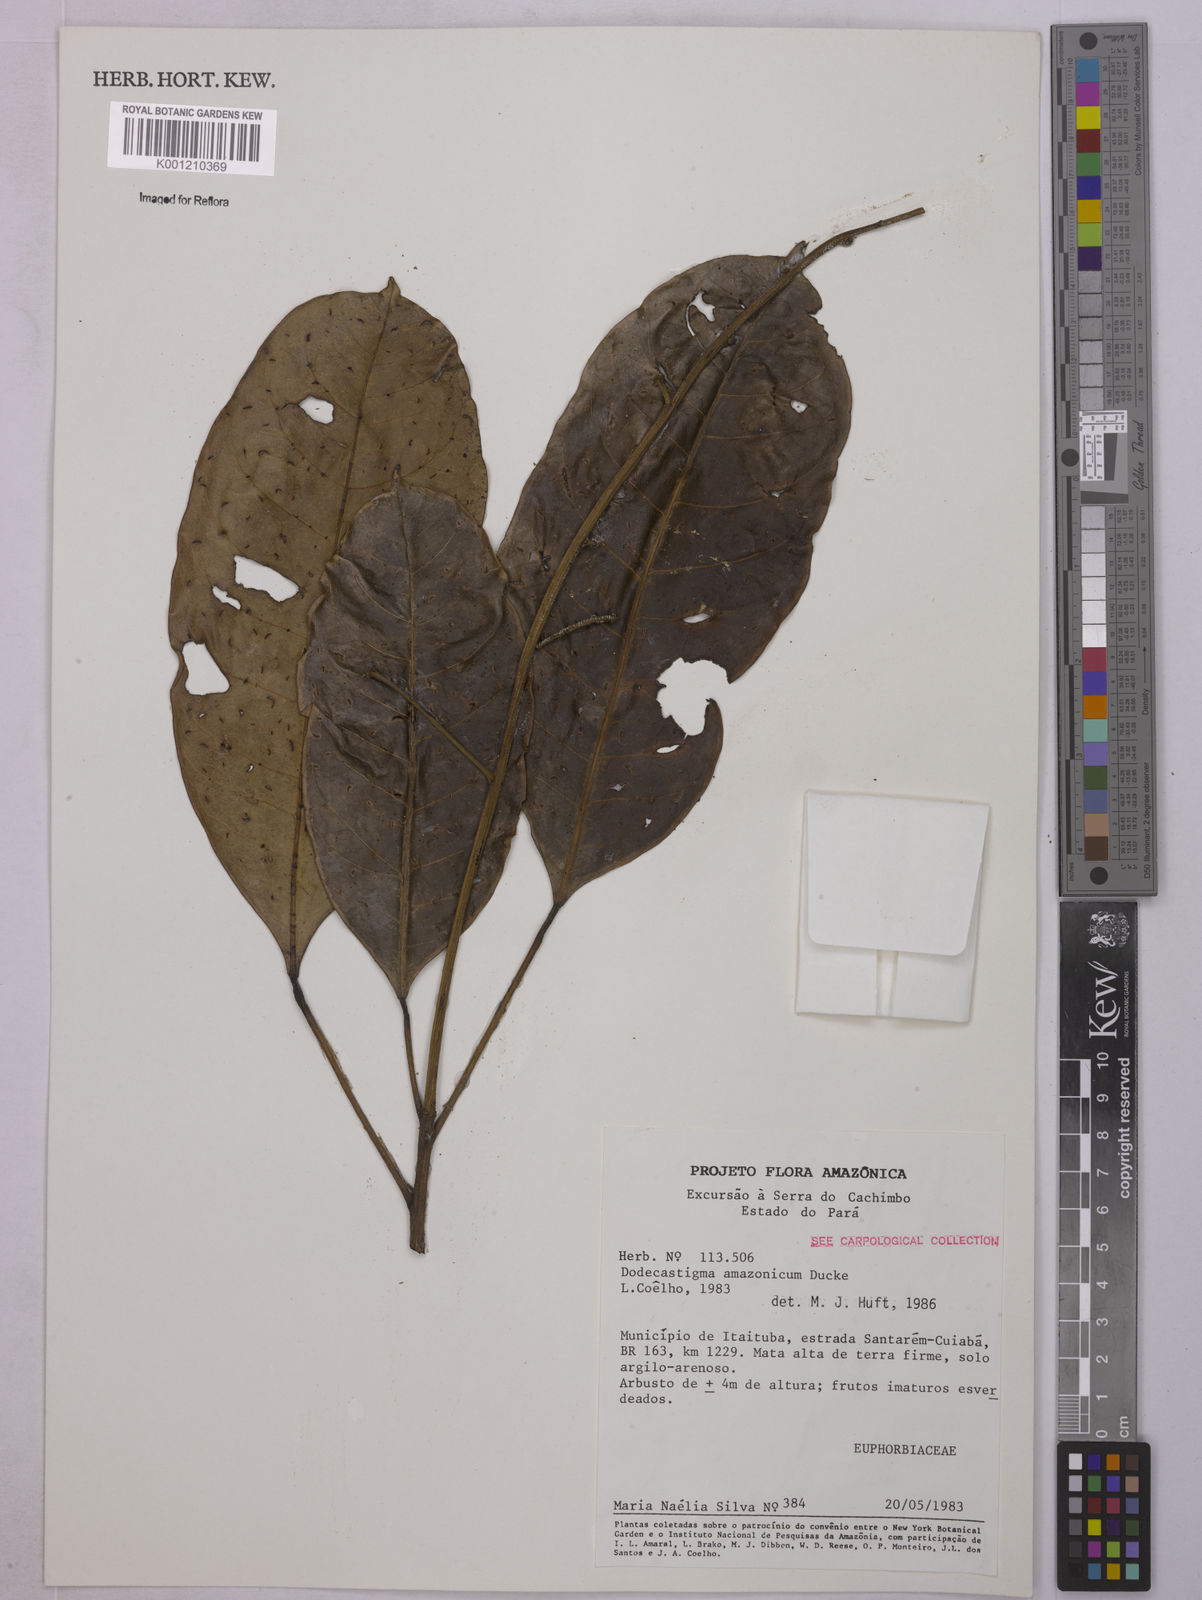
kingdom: Plantae
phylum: Tracheophyta
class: Magnoliopsida
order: Malpighiales
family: Euphorbiaceae
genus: Dodecastigma
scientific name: Dodecastigma amazonicum
